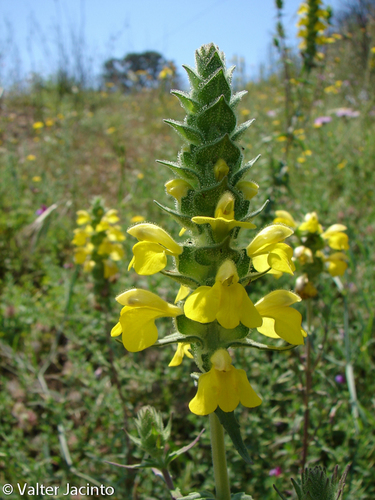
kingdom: Plantae
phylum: Tracheophyta
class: Magnoliopsida
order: Lamiales
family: Orobanchaceae
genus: Bellardia
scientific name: Bellardia trixago
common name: Mediterranean lineseed
